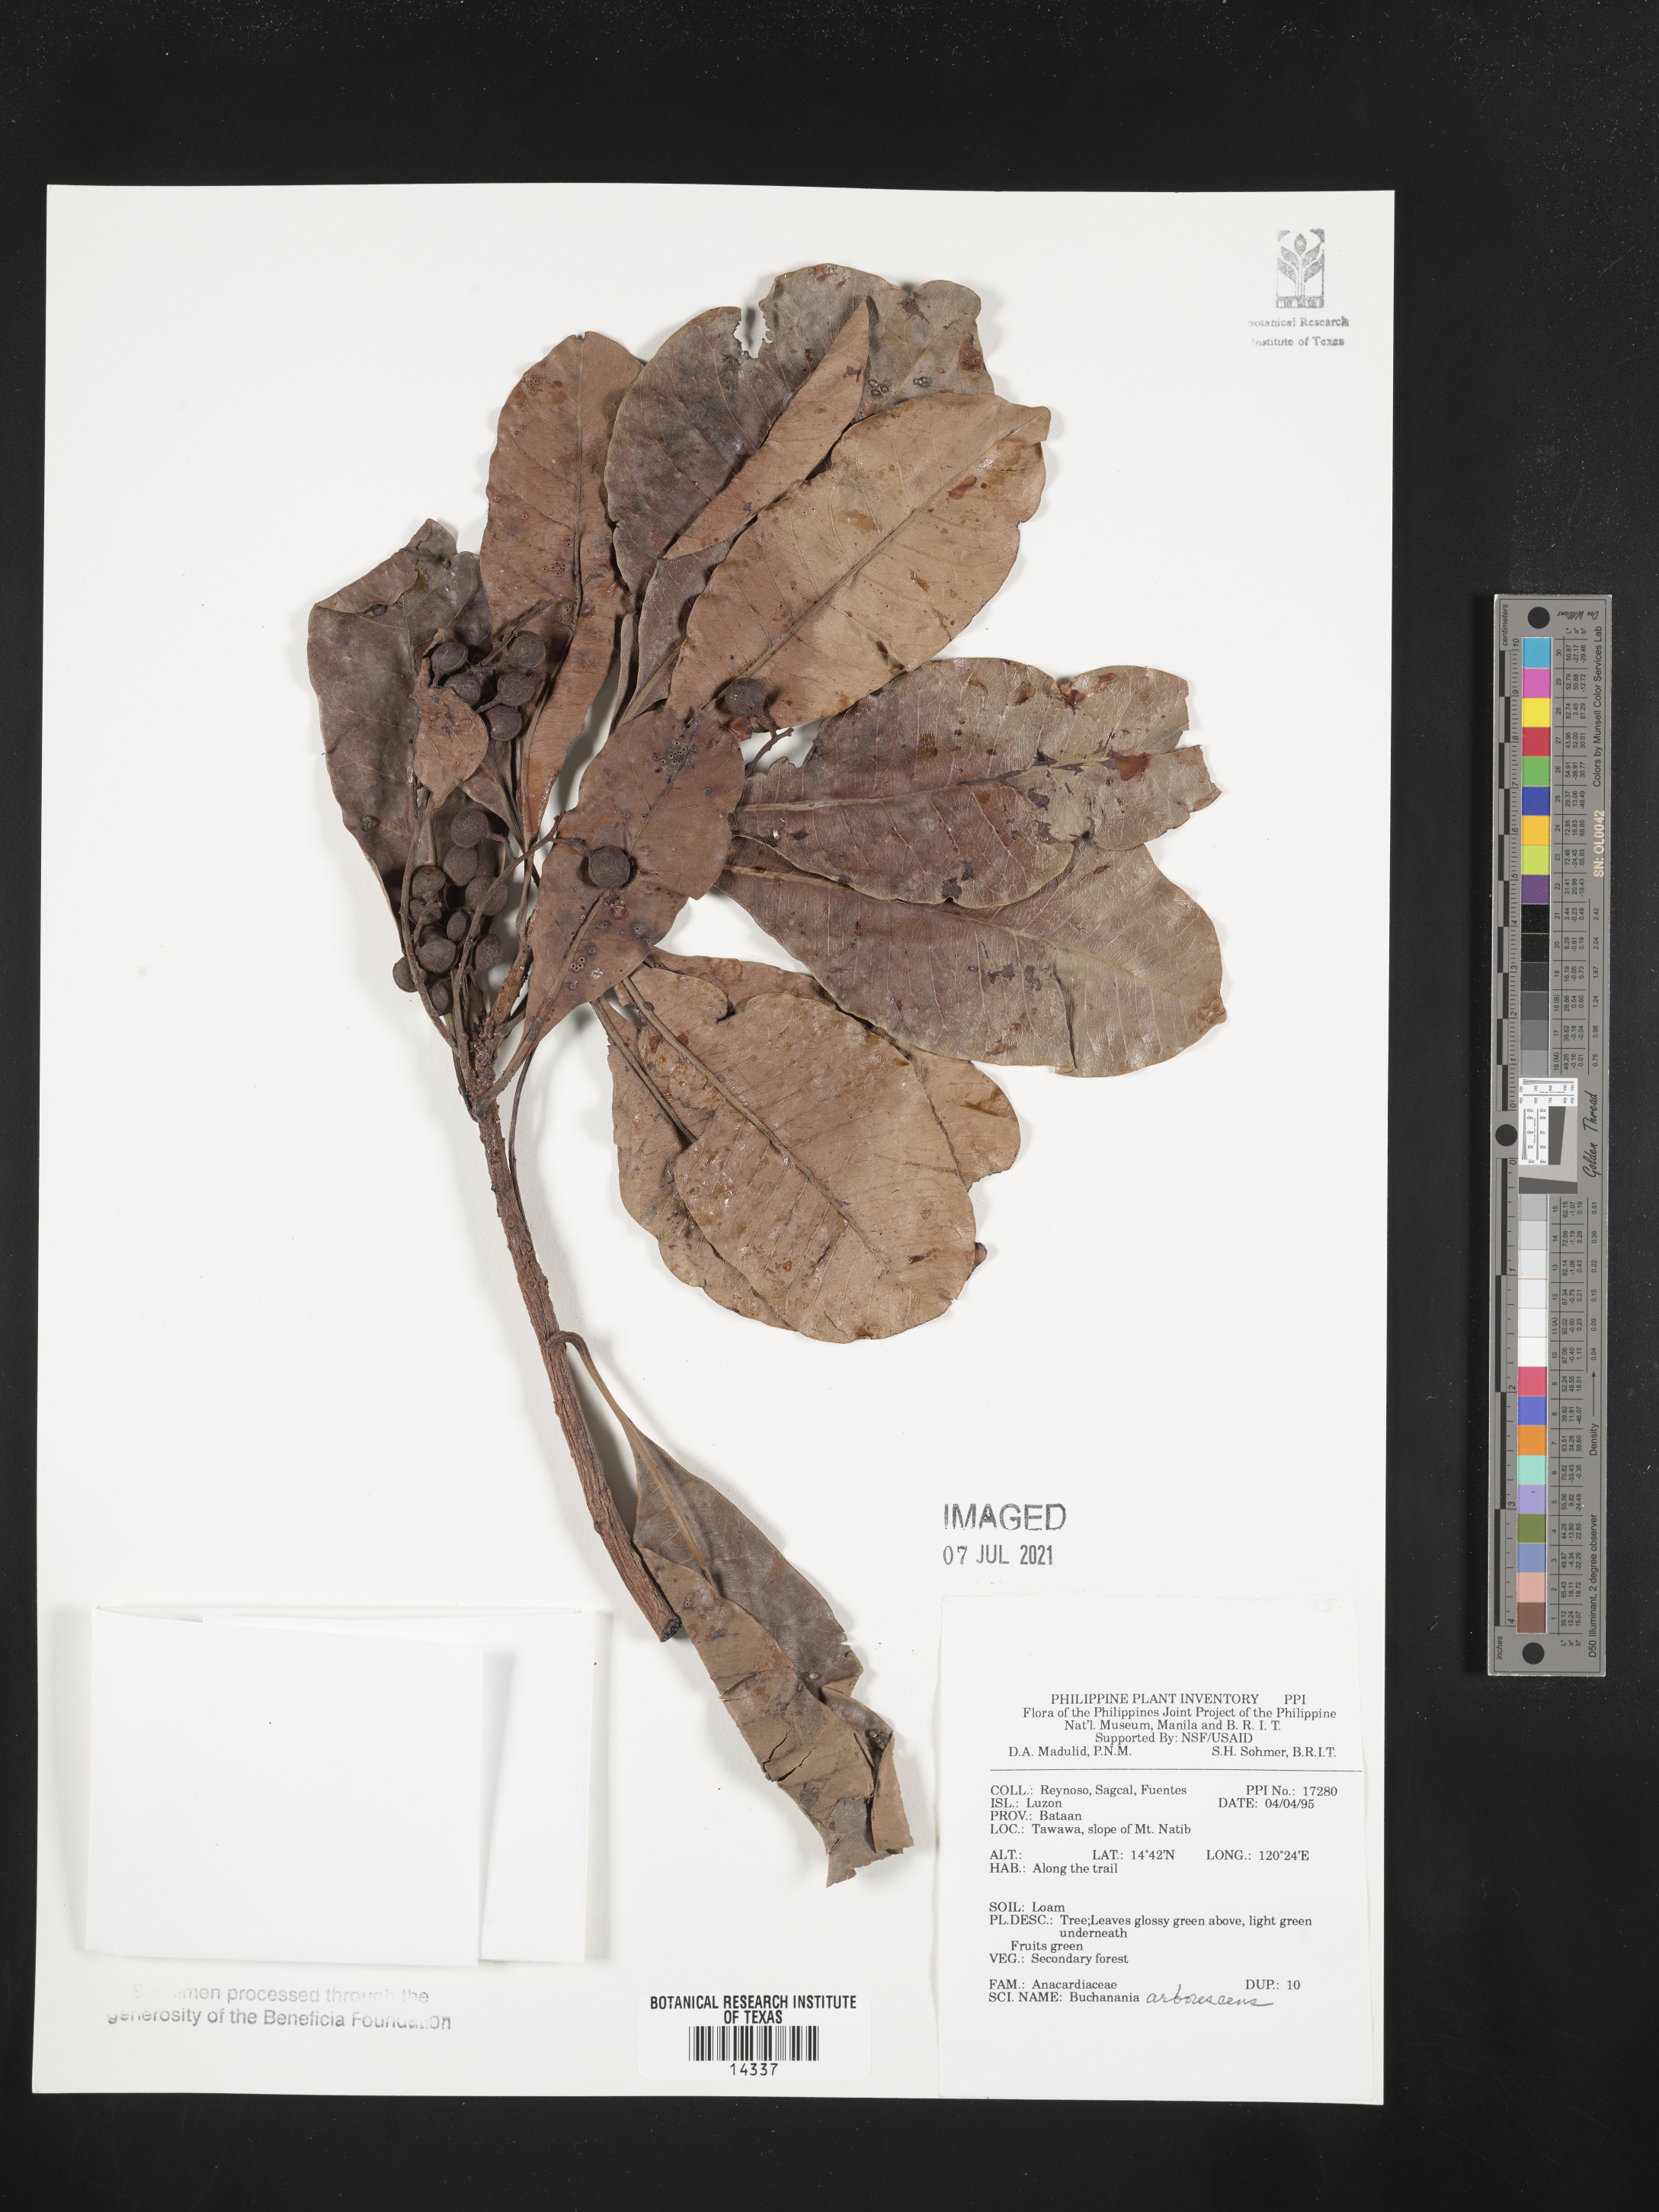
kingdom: Plantae
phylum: Tracheophyta
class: Magnoliopsida
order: Sapindales
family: Anacardiaceae
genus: Buchanania
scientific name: Buchanania arborescens
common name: Sparrow’s mango
